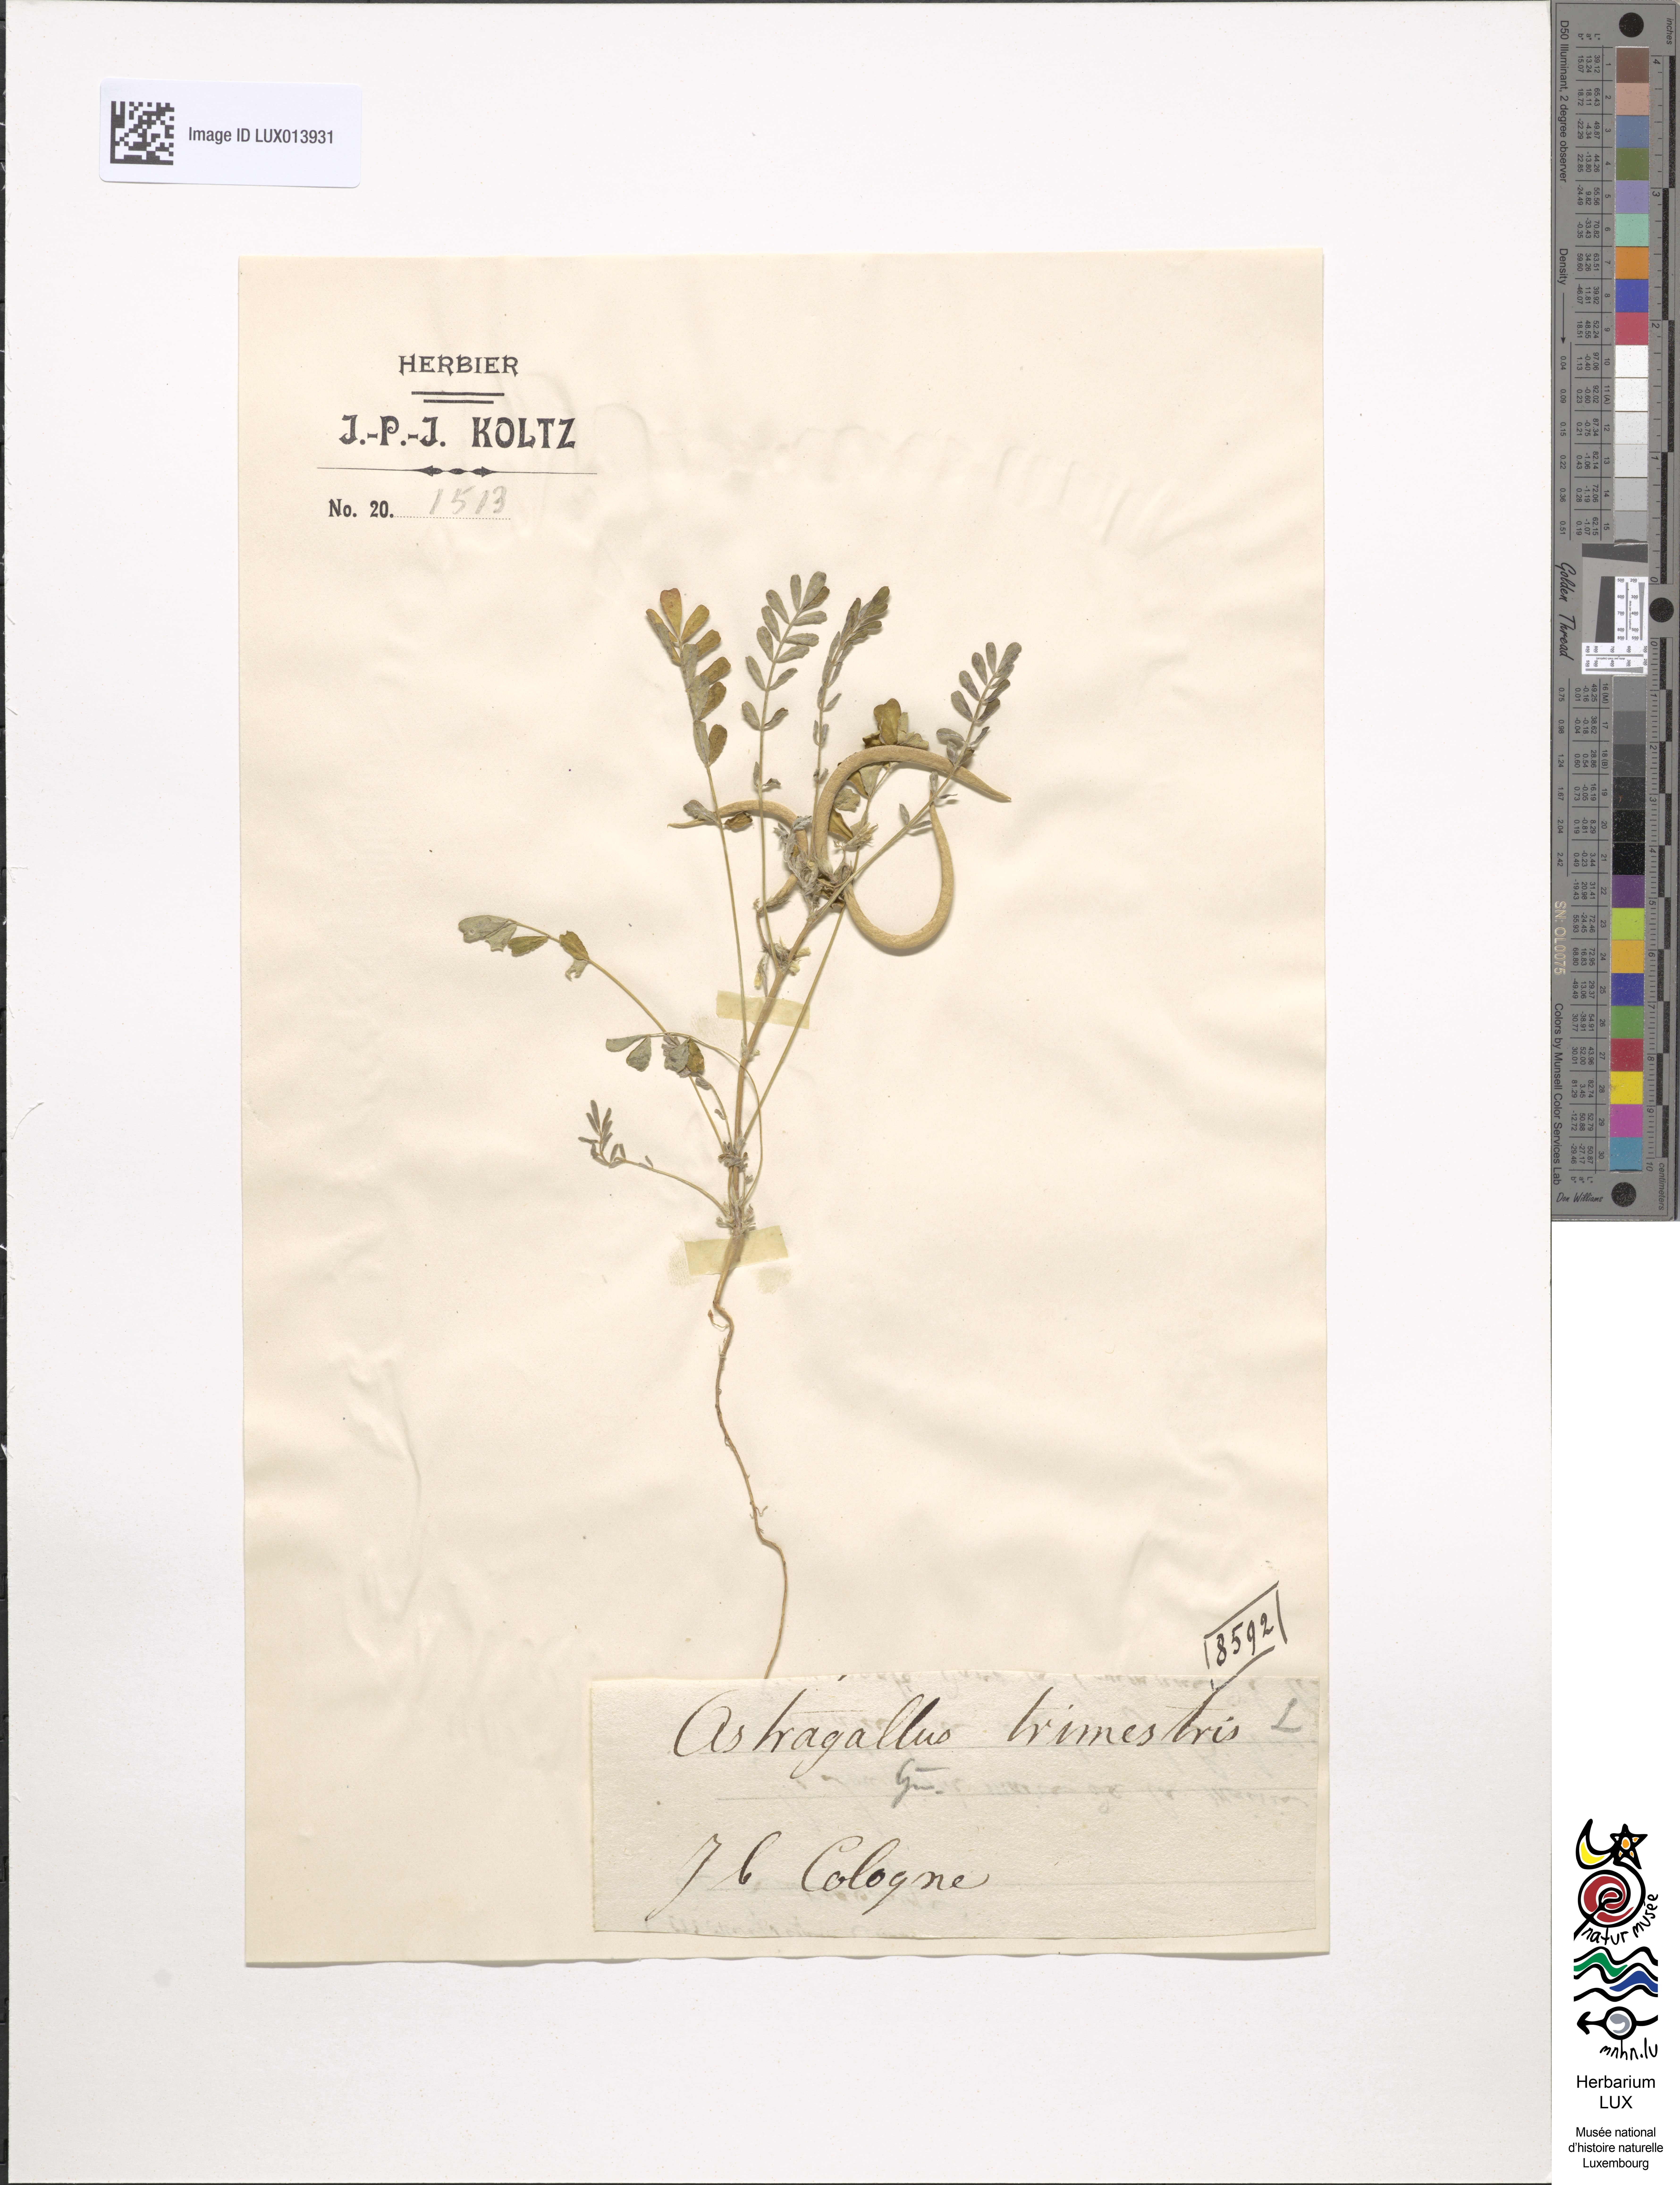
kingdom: Plantae
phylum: Tracheophyta
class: Magnoliopsida
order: Fabales
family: Fabaceae
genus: Astragalus
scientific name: Astragalus trimestris
